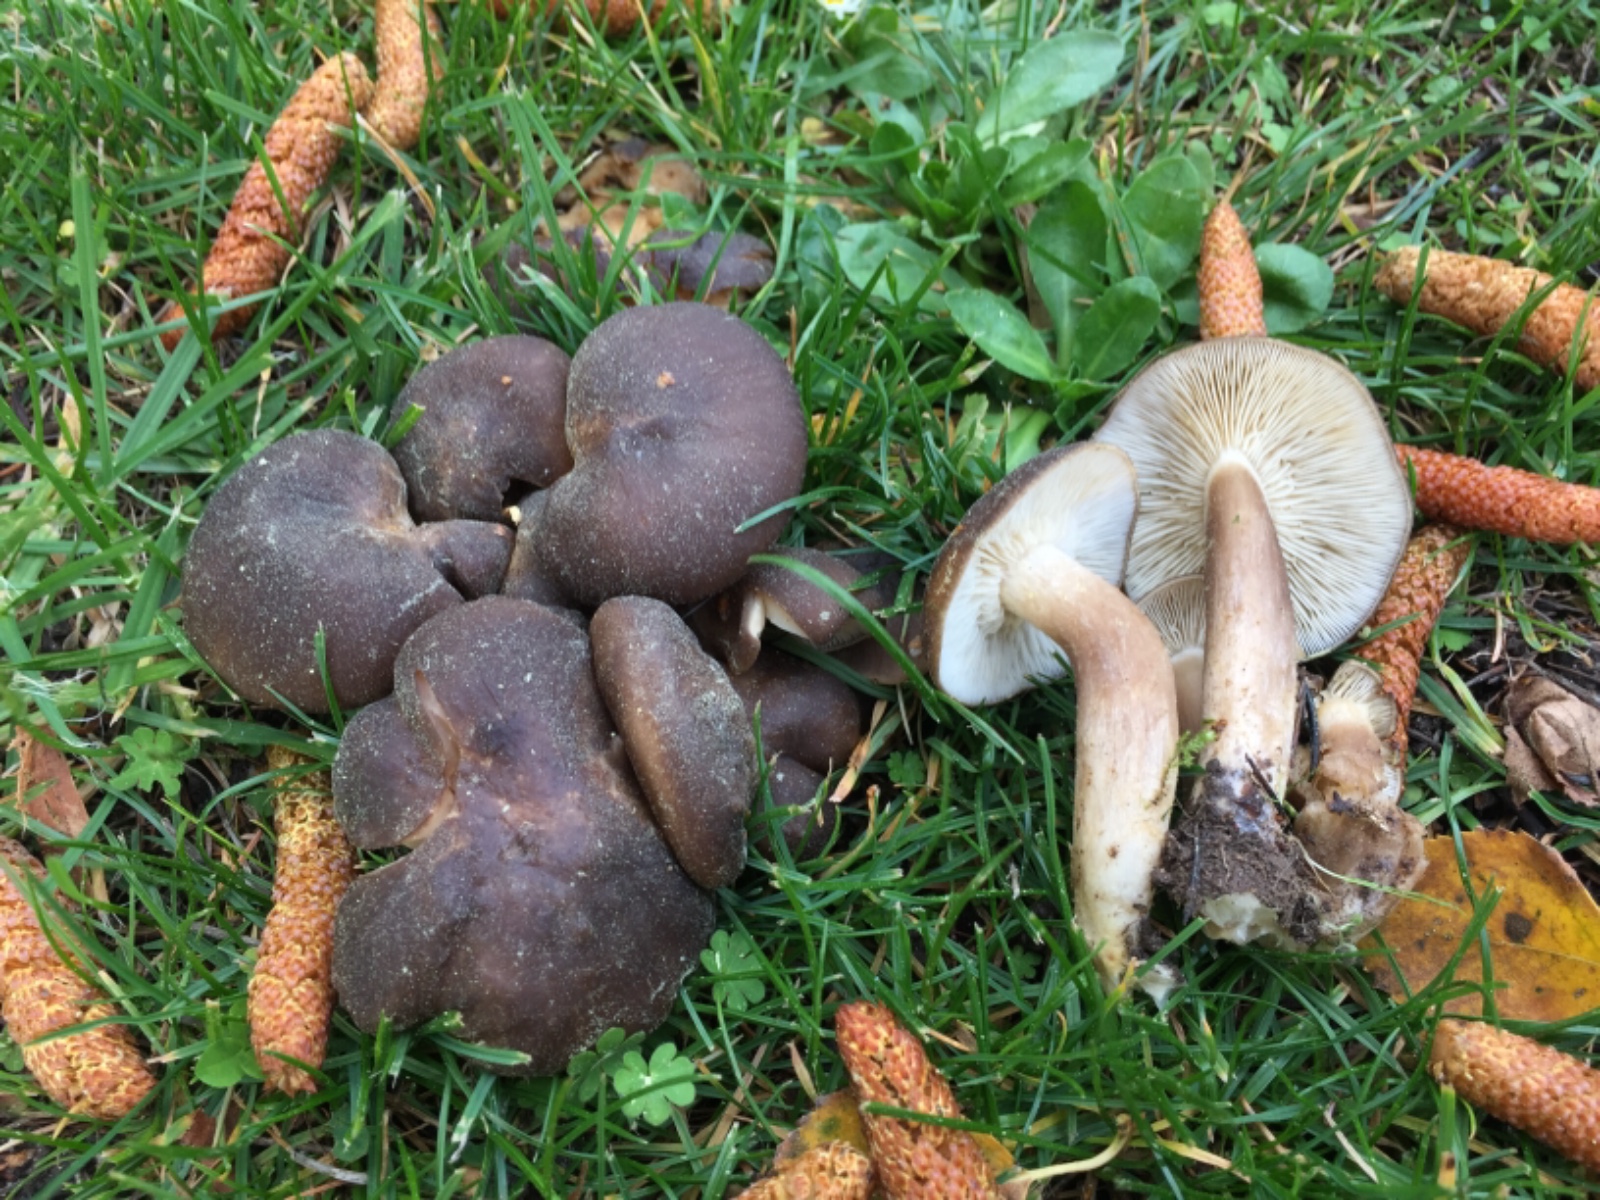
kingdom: Fungi
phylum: Basidiomycota
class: Agaricomycetes
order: Agaricales
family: Lyophyllaceae
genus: Lyophyllum
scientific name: Lyophyllum decastes
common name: Clustered domecap
